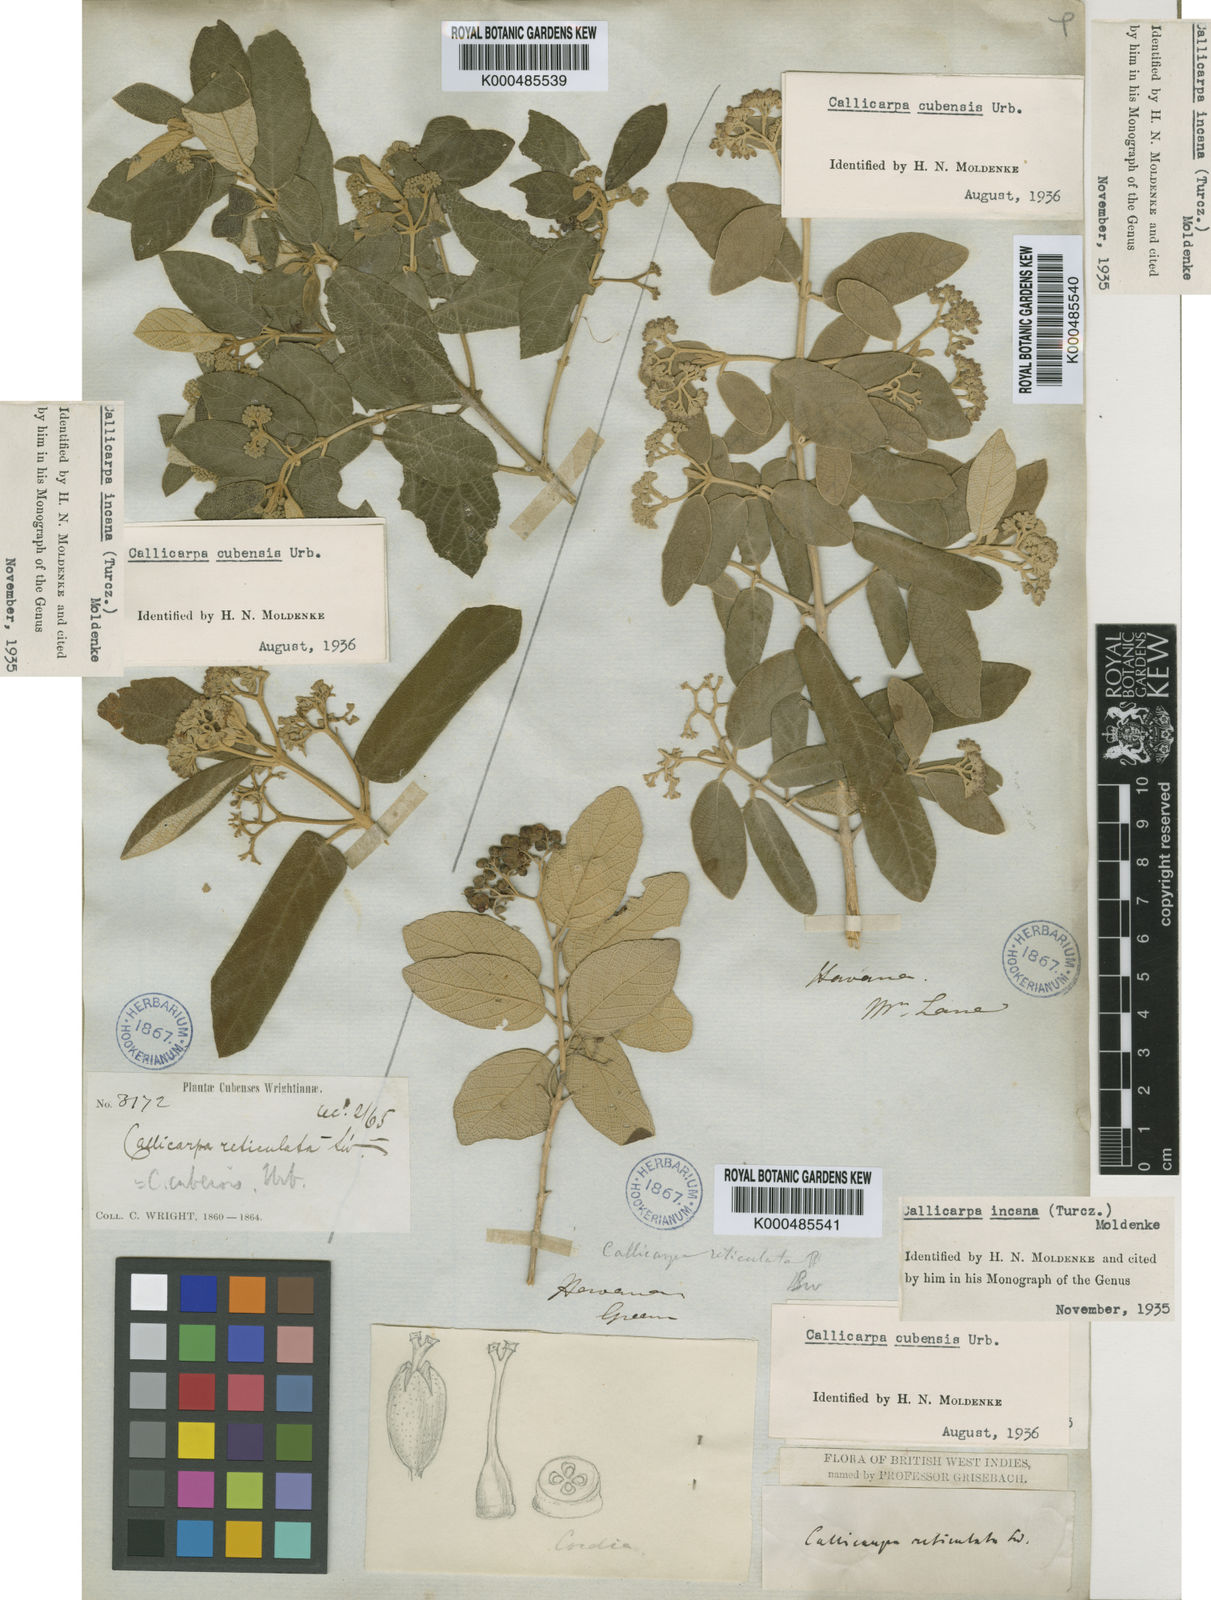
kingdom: Plantae
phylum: Tracheophyta
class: Magnoliopsida
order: Lamiales
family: Lamiaceae
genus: Callicarpa
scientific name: Callicarpa cubensis
